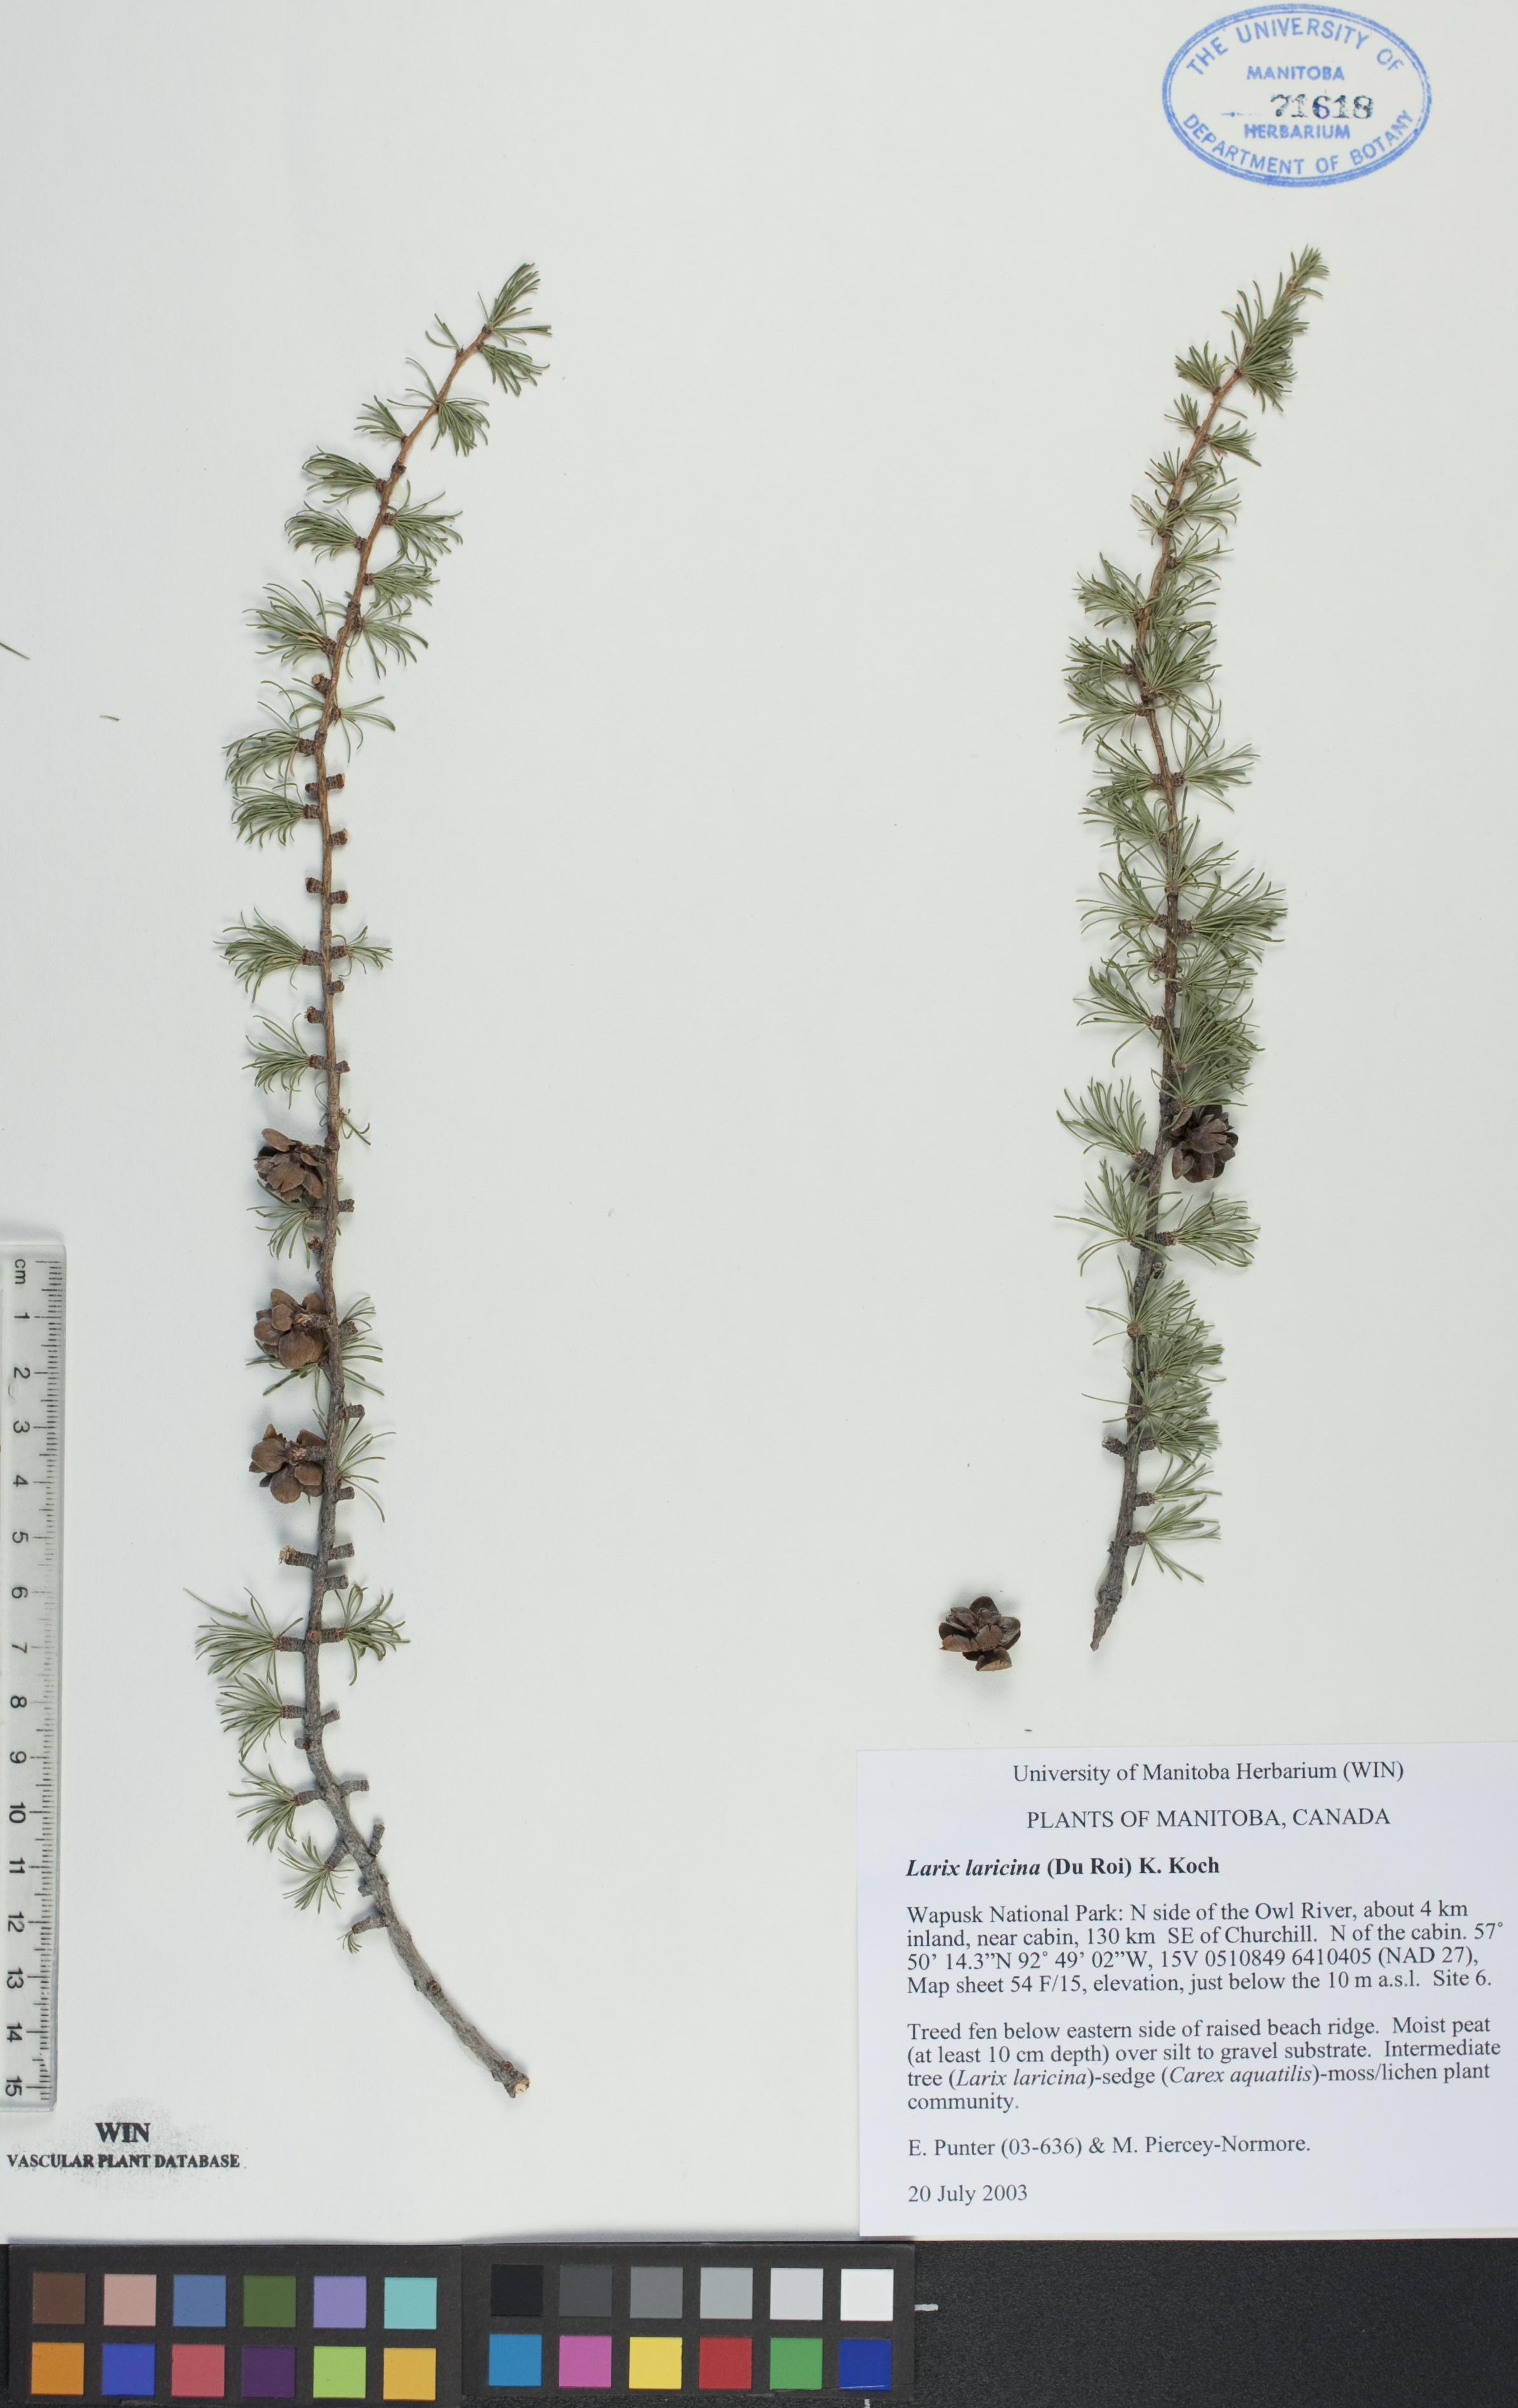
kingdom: Plantae
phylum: Tracheophyta
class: Pinopsida
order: Pinales
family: Pinaceae
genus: Larix
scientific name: Larix laricina
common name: American larch
